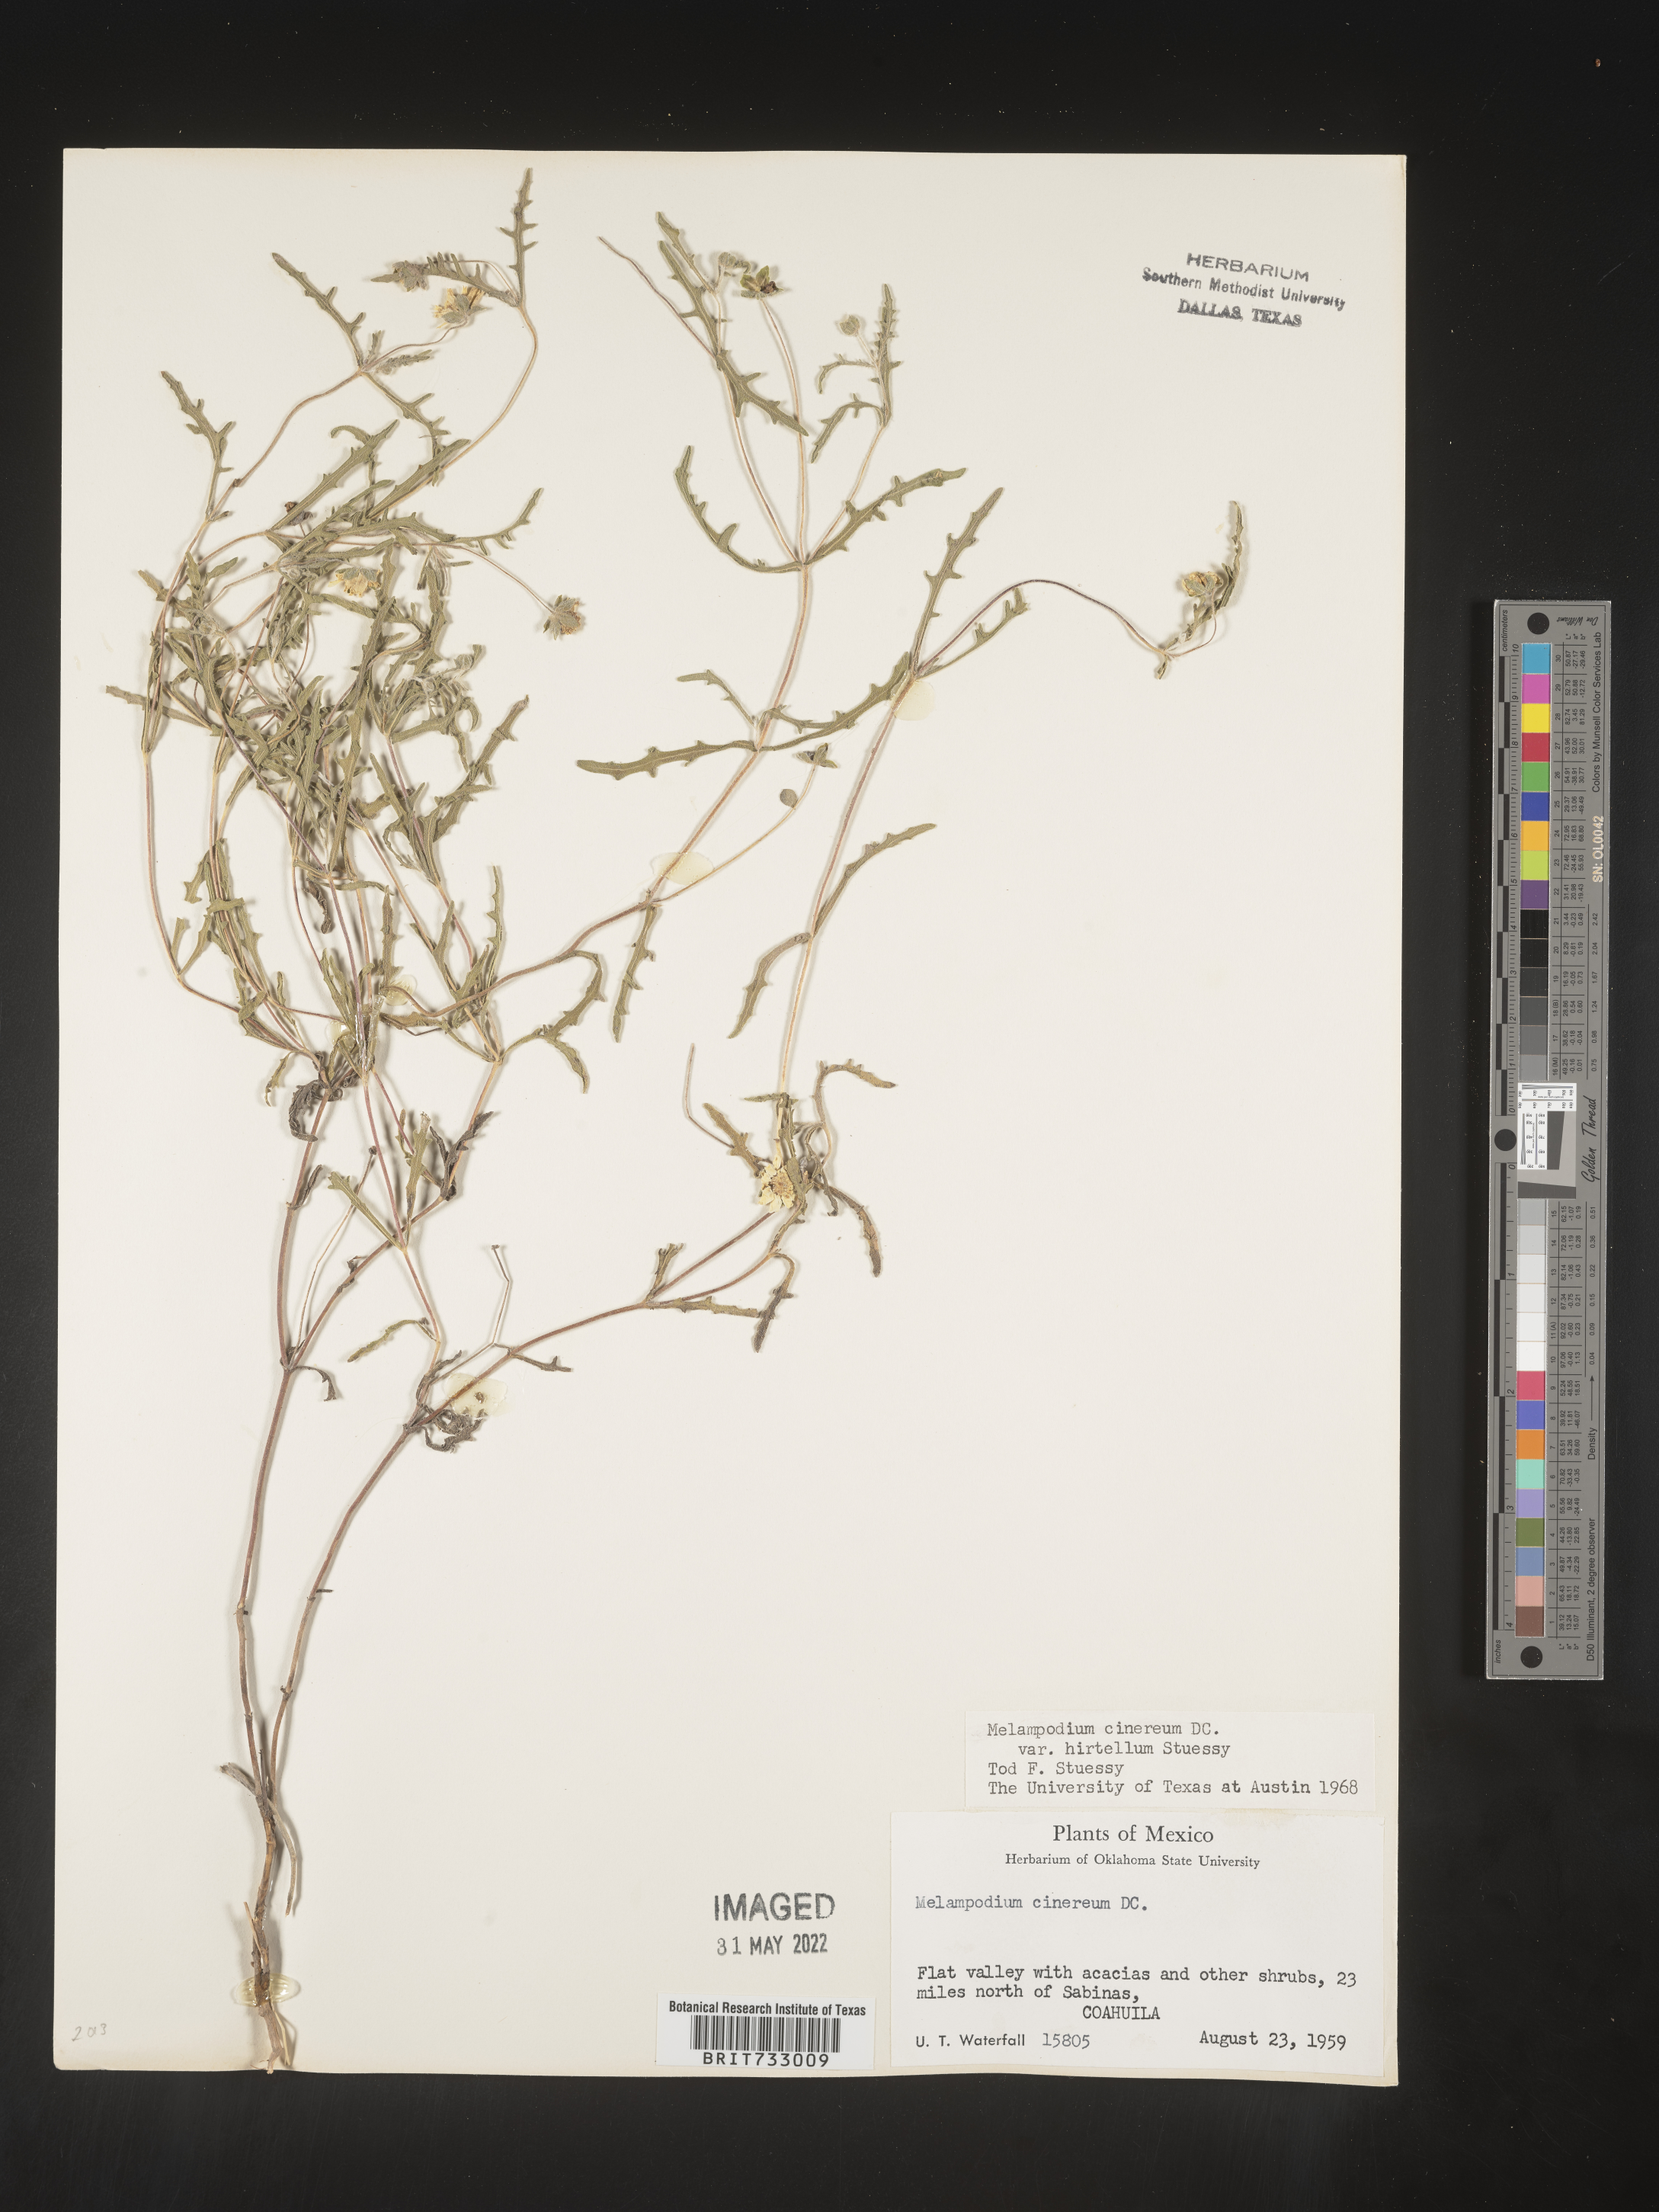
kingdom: Plantae
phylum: Tracheophyta
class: Magnoliopsida
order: Asterales
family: Asteraceae
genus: Melampodium
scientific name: Melampodium
